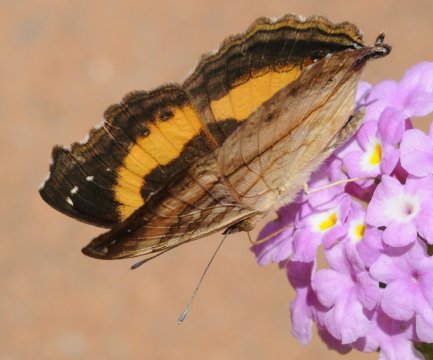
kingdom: Animalia
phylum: Arthropoda
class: Insecta
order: Lepidoptera
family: Nymphalidae
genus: Junonia
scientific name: Junonia terea
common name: Soldier Pansy
